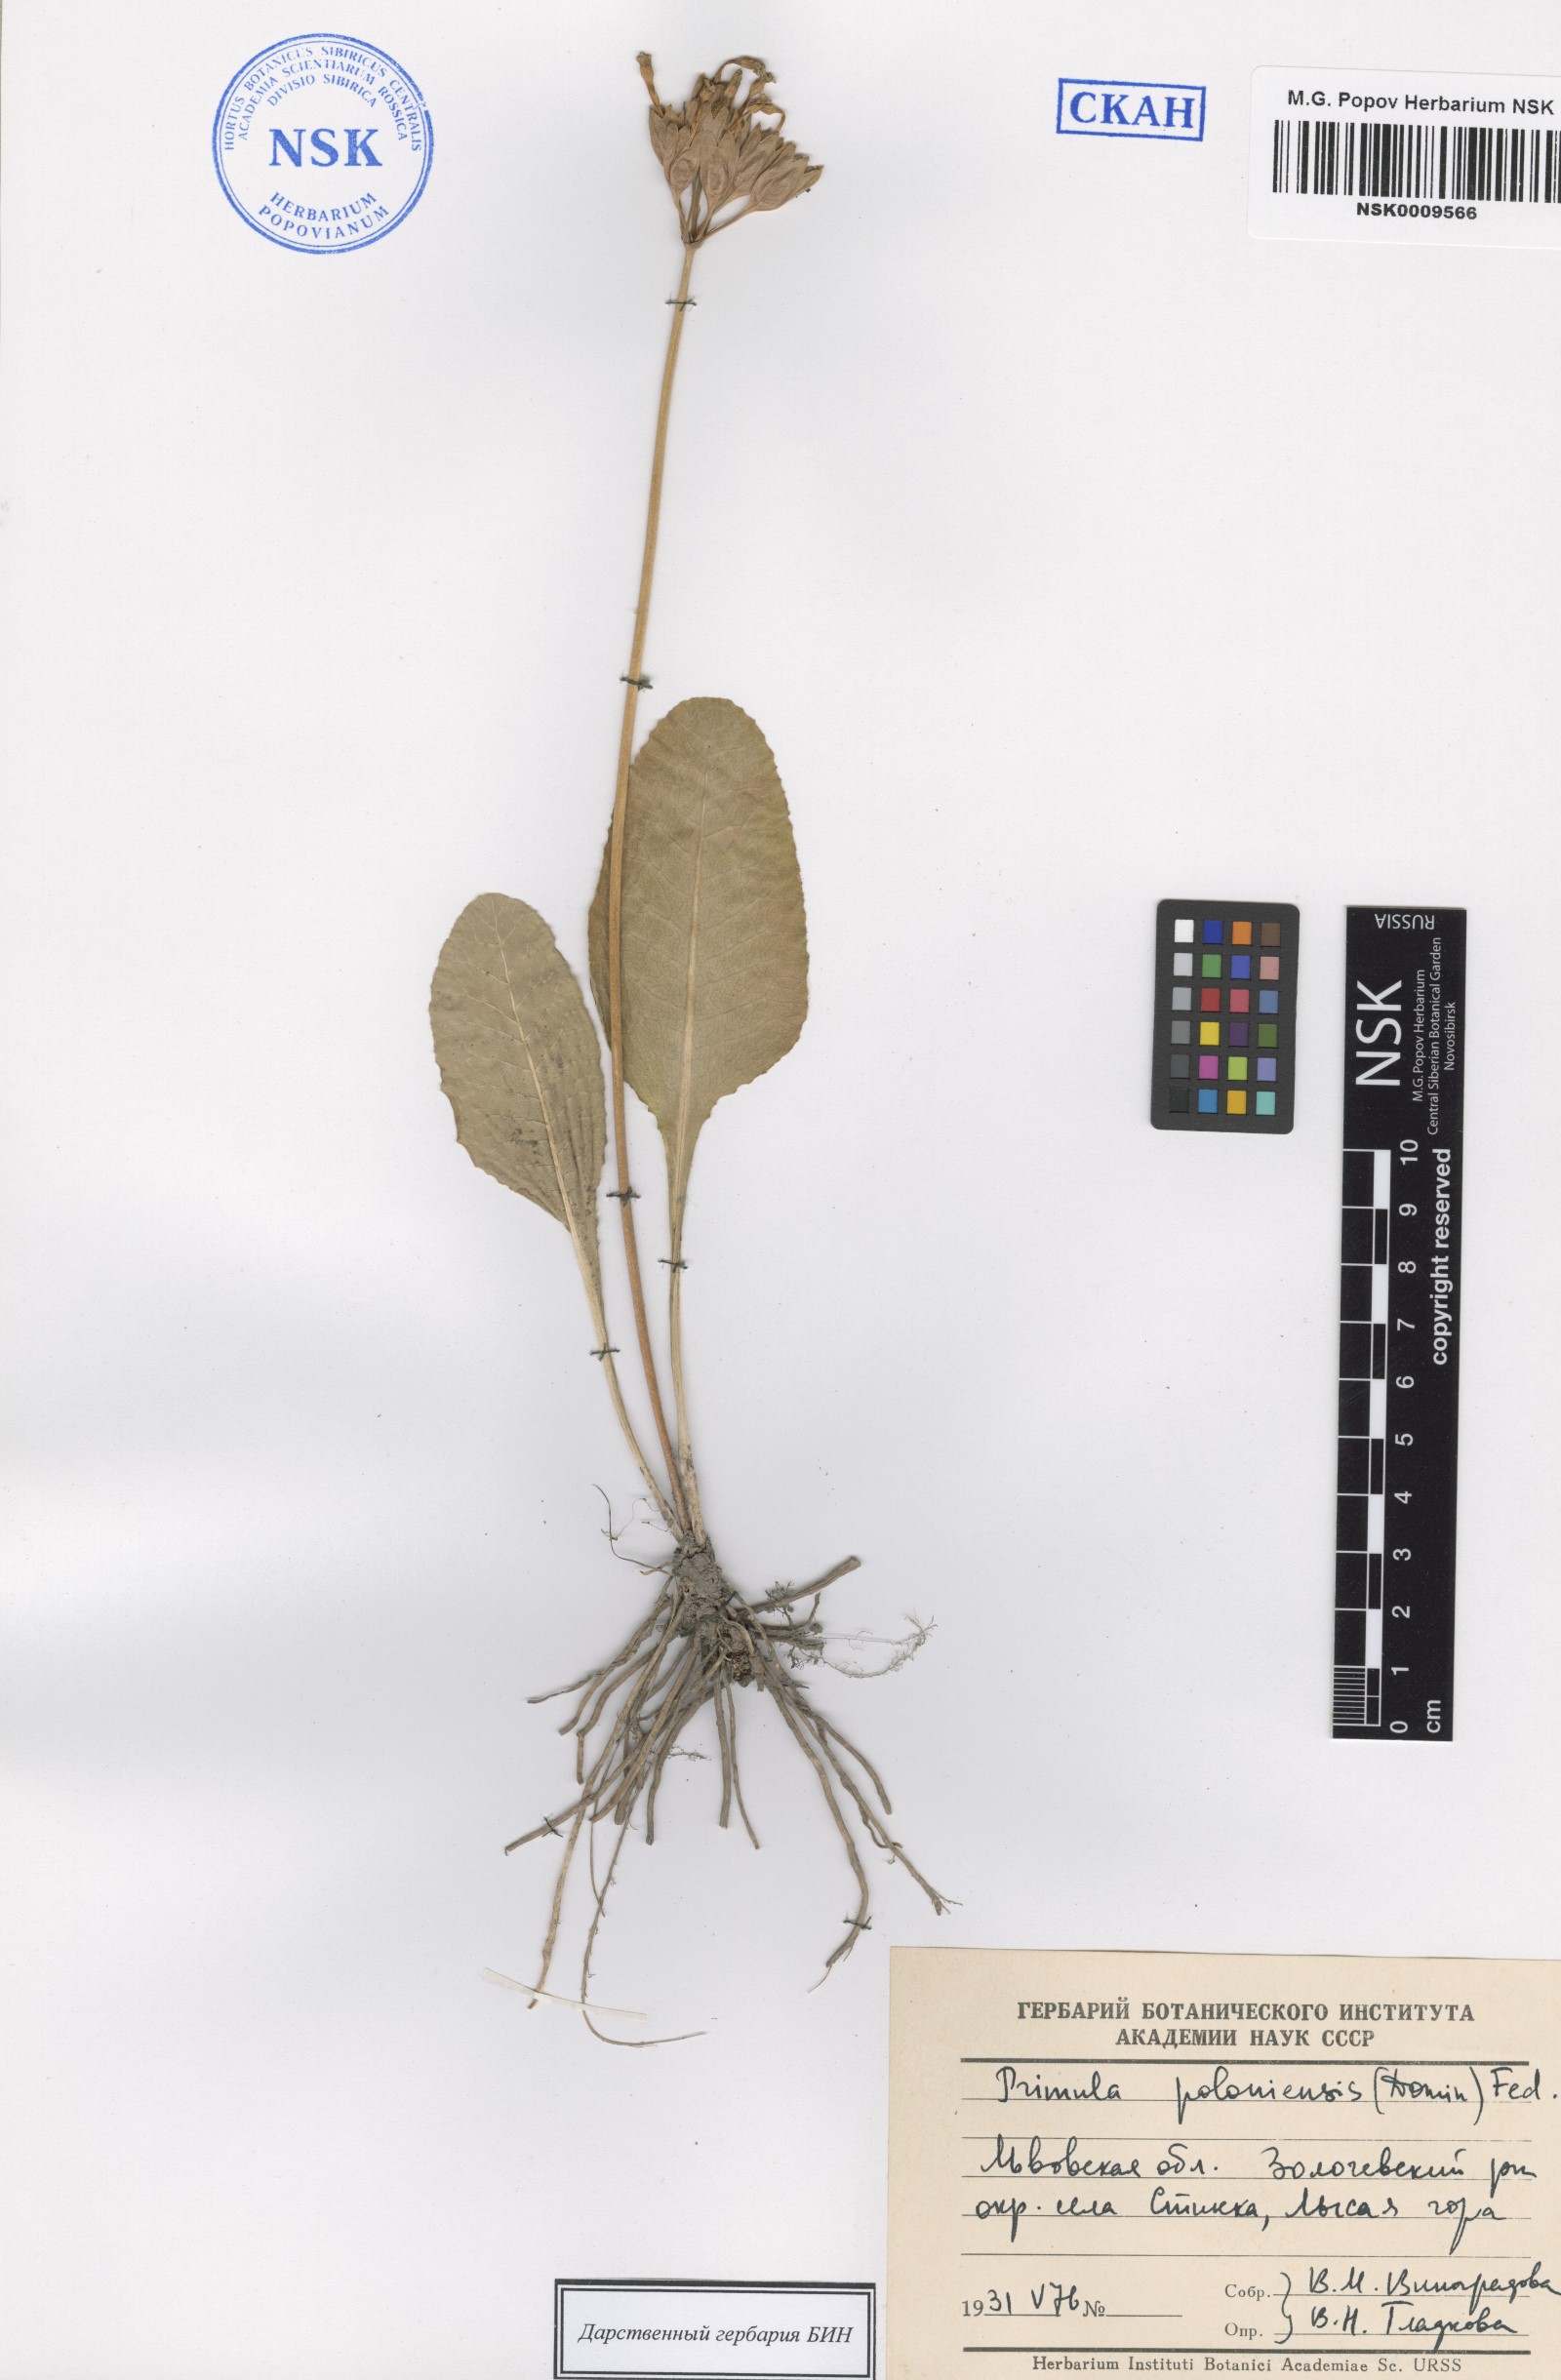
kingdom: Plantae
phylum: Tracheophyta
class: Magnoliopsida
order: Ericales
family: Primulaceae
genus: Primula
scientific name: Primula elatior
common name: Oxlip
